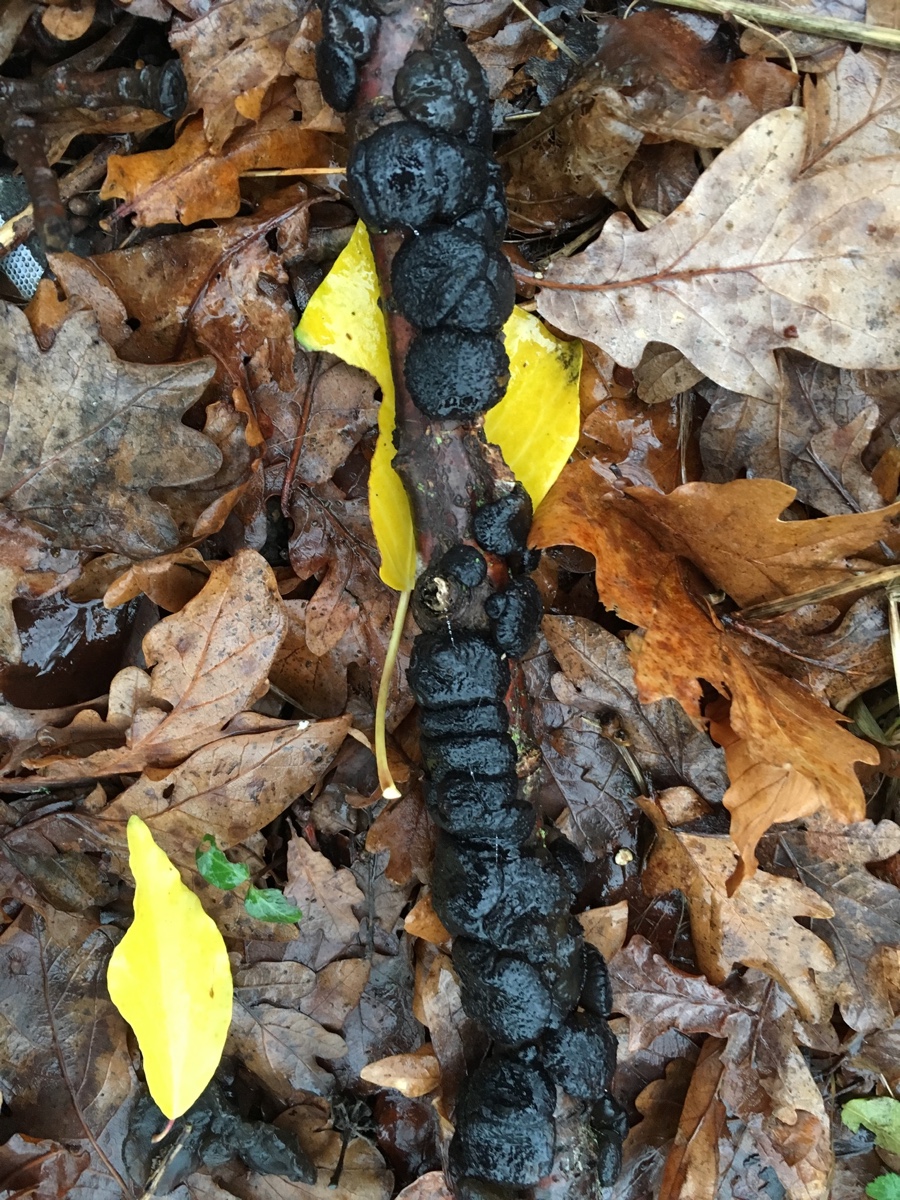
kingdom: Fungi
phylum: Basidiomycota
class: Agaricomycetes
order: Auriculariales
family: Auriculariaceae
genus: Exidia
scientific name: Exidia glandulosa
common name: ege-bævretop
